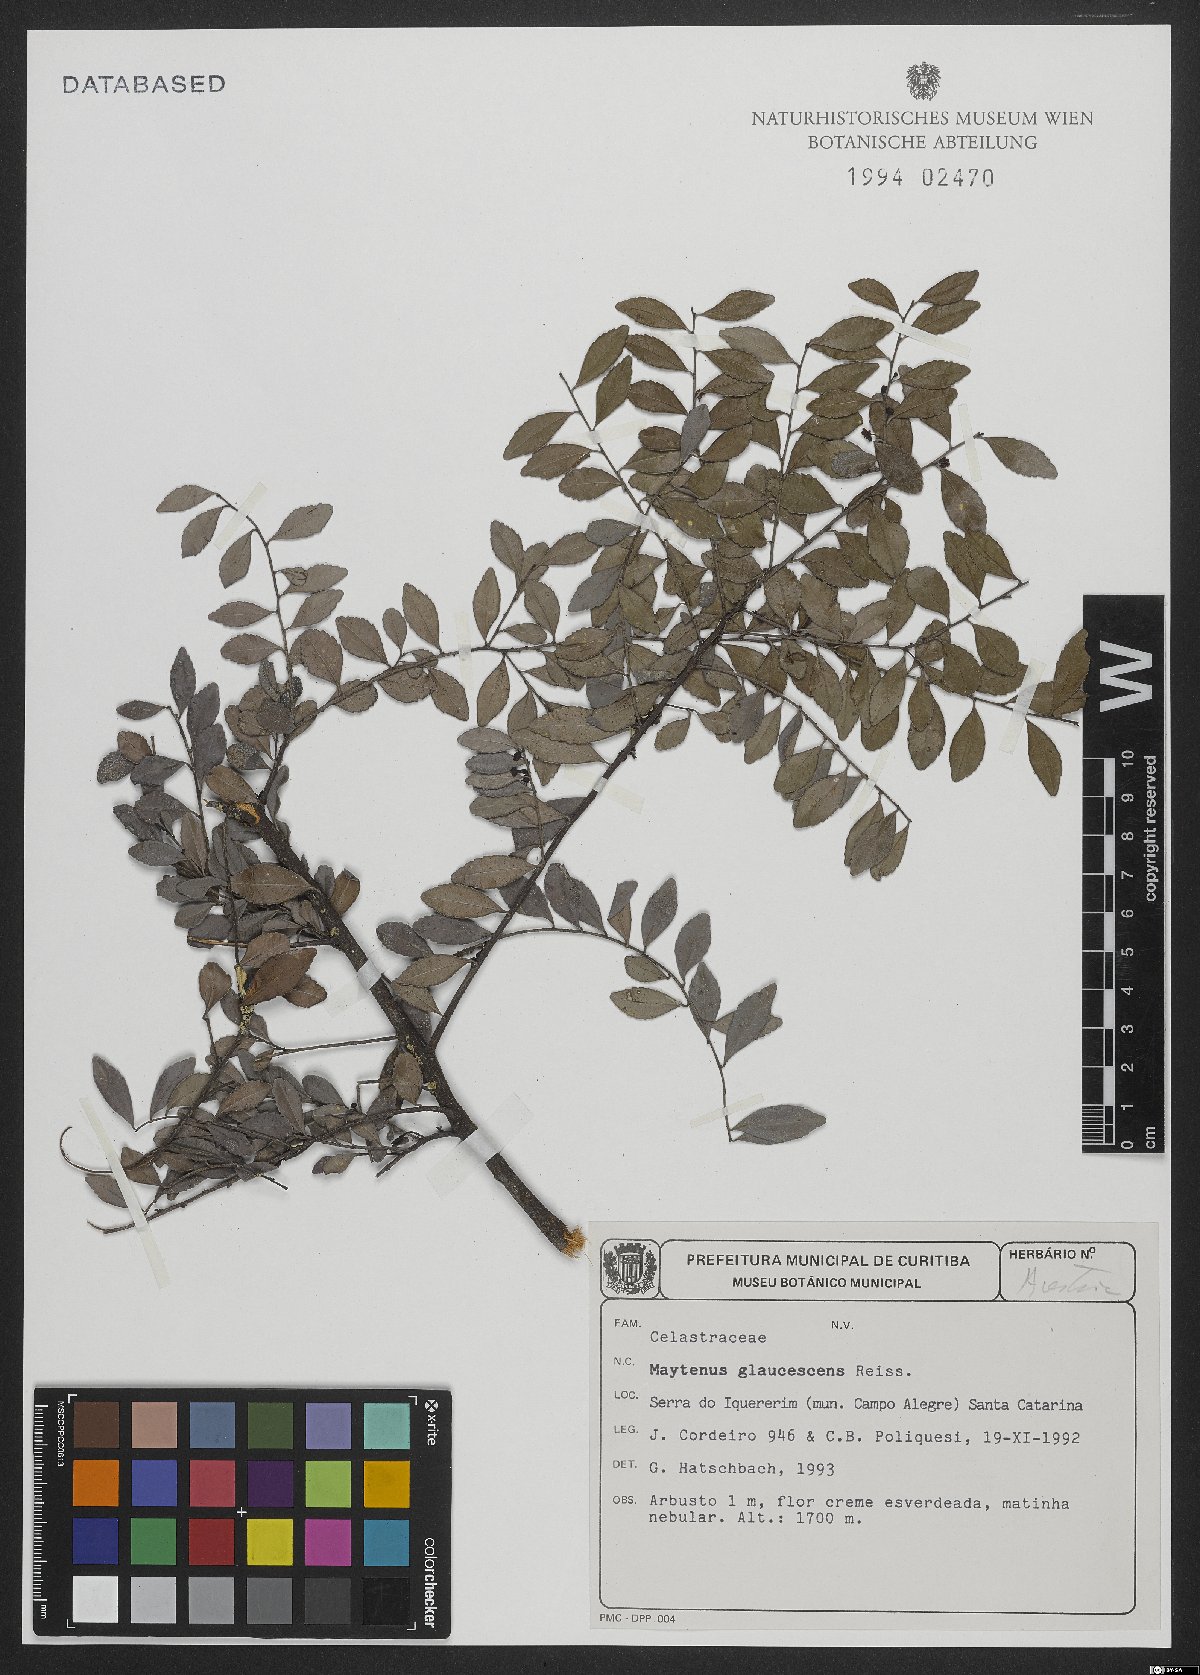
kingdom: Plantae
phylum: Tracheophyta
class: Magnoliopsida
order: Celastrales
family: Celastraceae
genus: Monteverdia
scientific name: Monteverdia glaucescens
